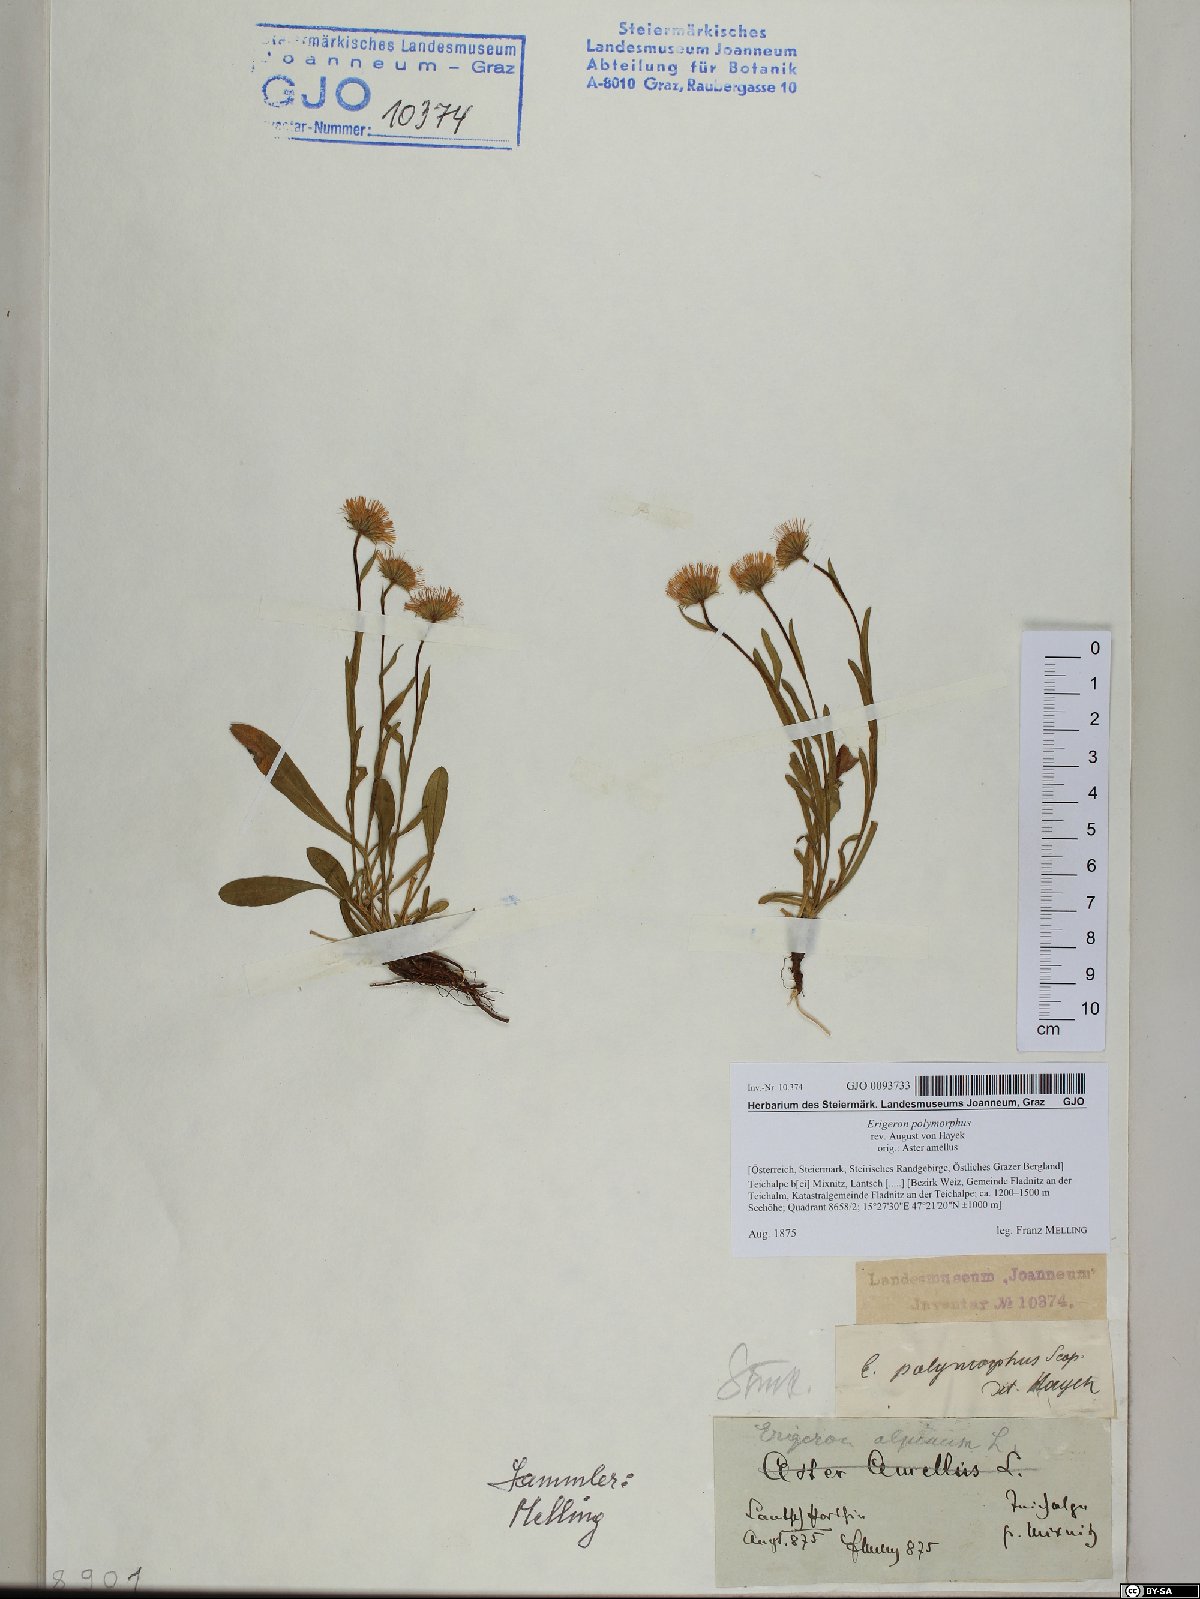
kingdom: Plantae
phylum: Tracheophyta
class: Magnoliopsida
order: Asterales
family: Asteraceae
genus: Erigeron
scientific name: Erigeron alpinus
